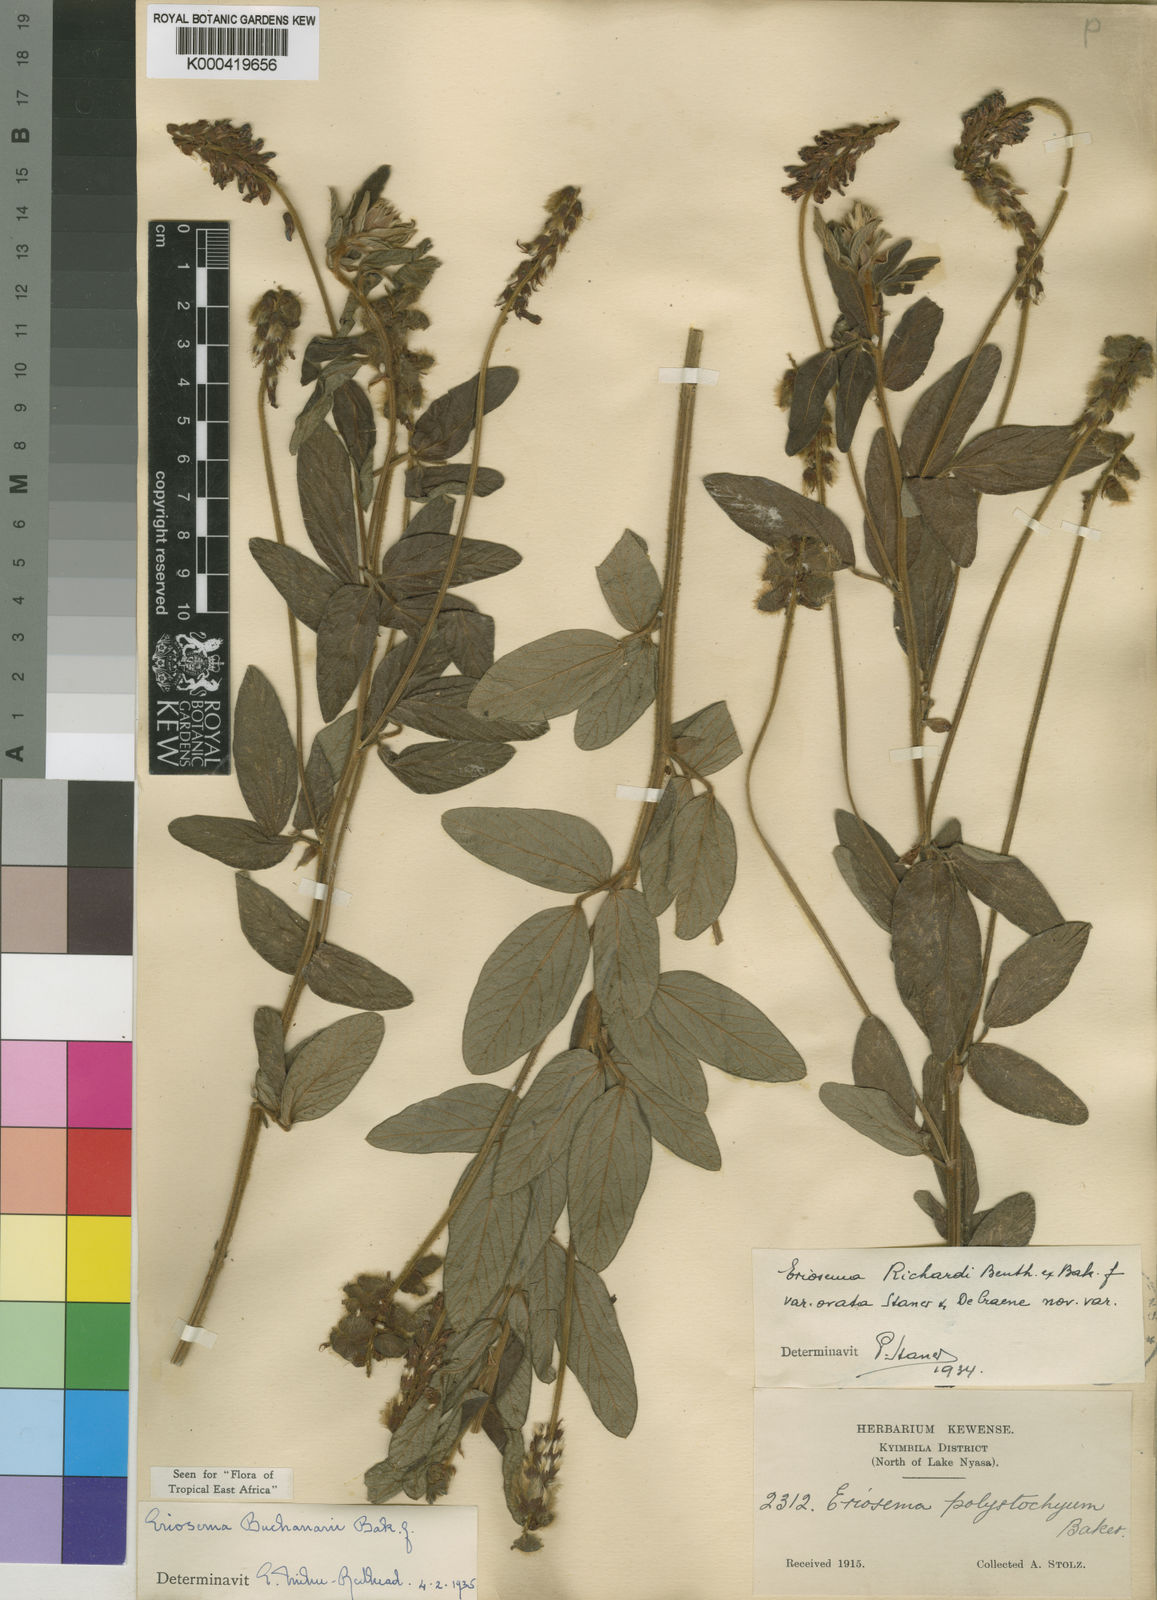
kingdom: Plantae
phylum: Tracheophyta
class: Magnoliopsida
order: Fabales
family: Fabaceae
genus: Eriosema
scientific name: Eriosema buchananii
